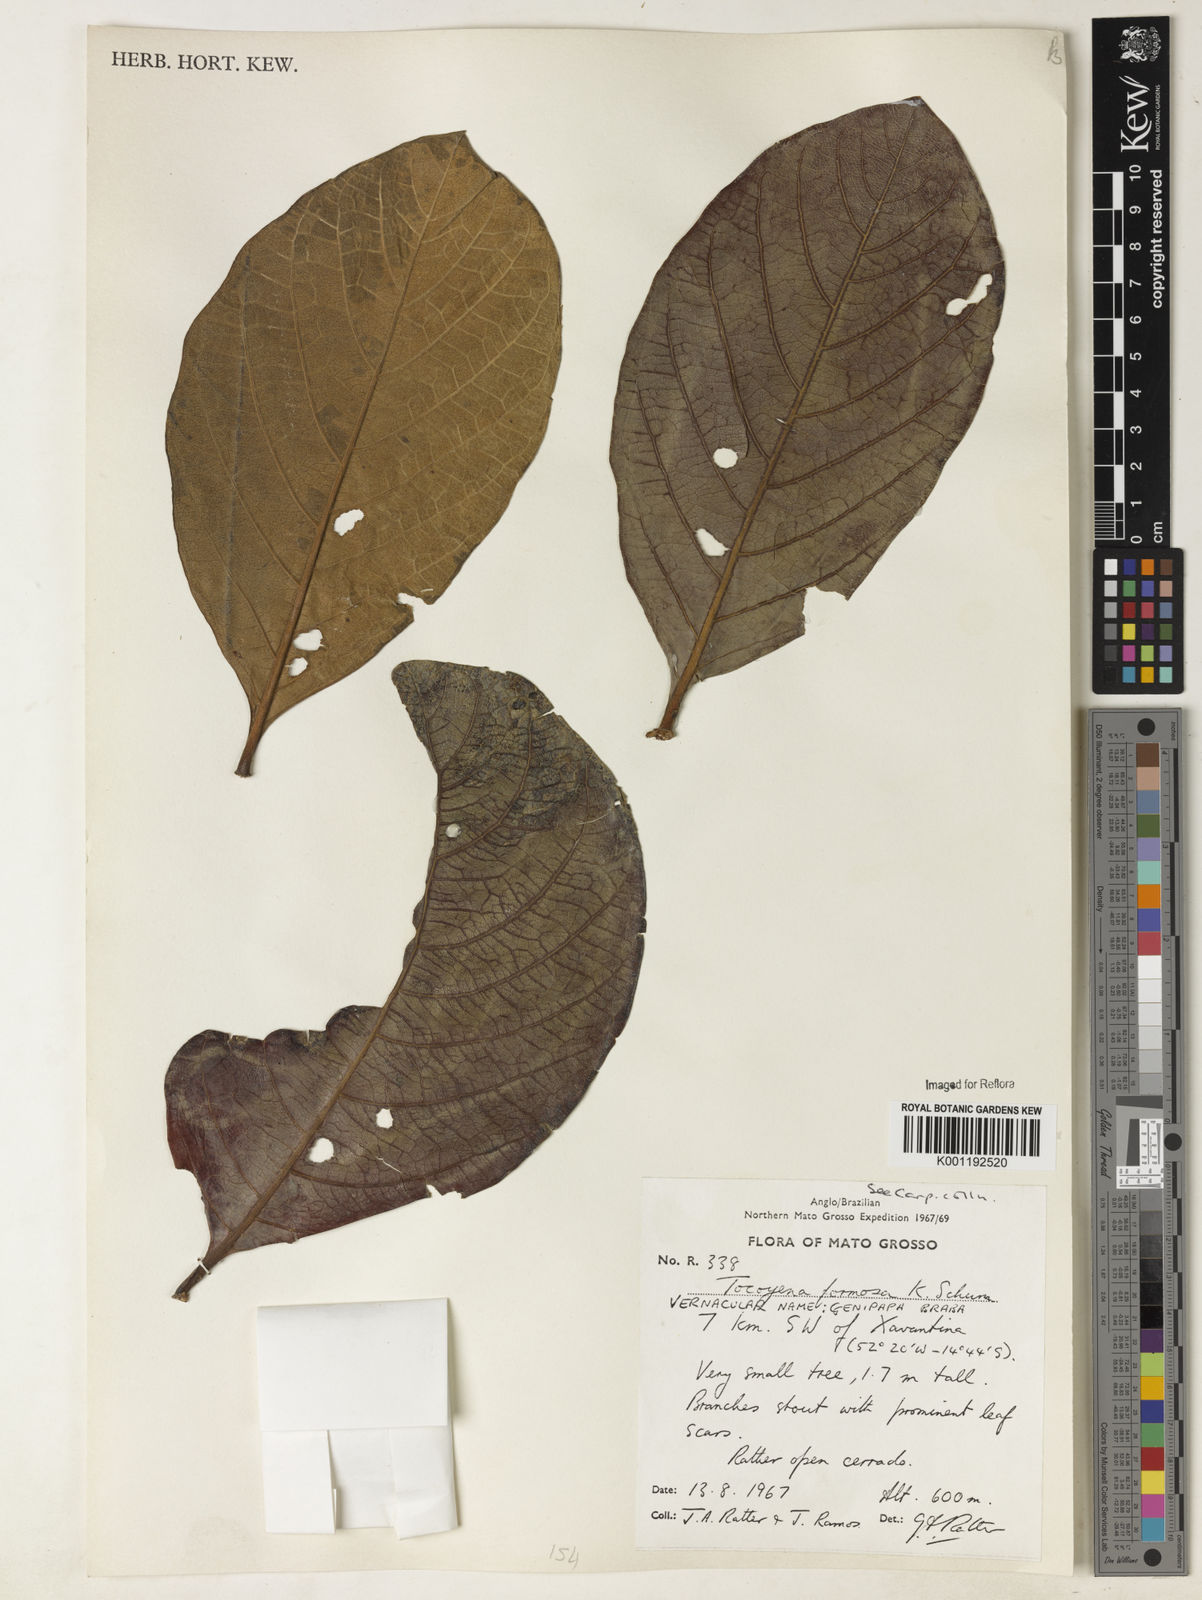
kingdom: Plantae
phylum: Tracheophyta
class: Magnoliopsida
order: Gentianales
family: Rubiaceae
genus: Tocoyena
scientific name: Tocoyena formosa
